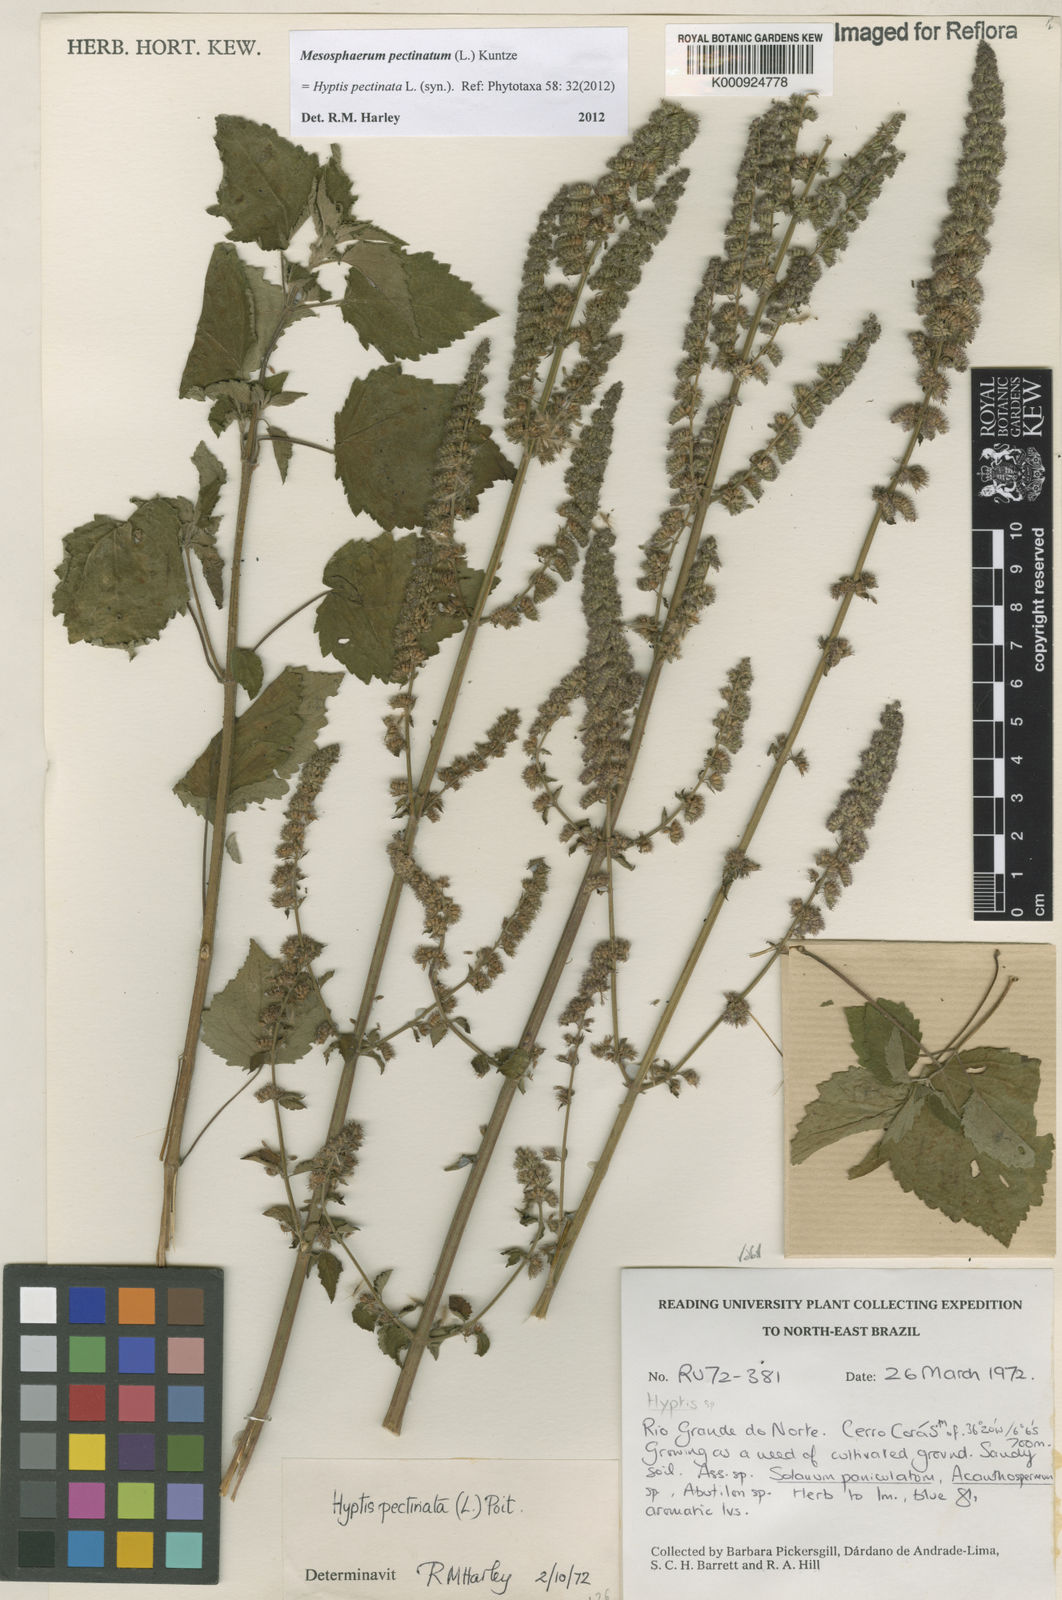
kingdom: Plantae
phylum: Tracheophyta
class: Magnoliopsida
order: Lamiales
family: Lamiaceae
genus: Mesosphaerum
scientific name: Mesosphaerum pectinatum
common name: Comb hyptis
